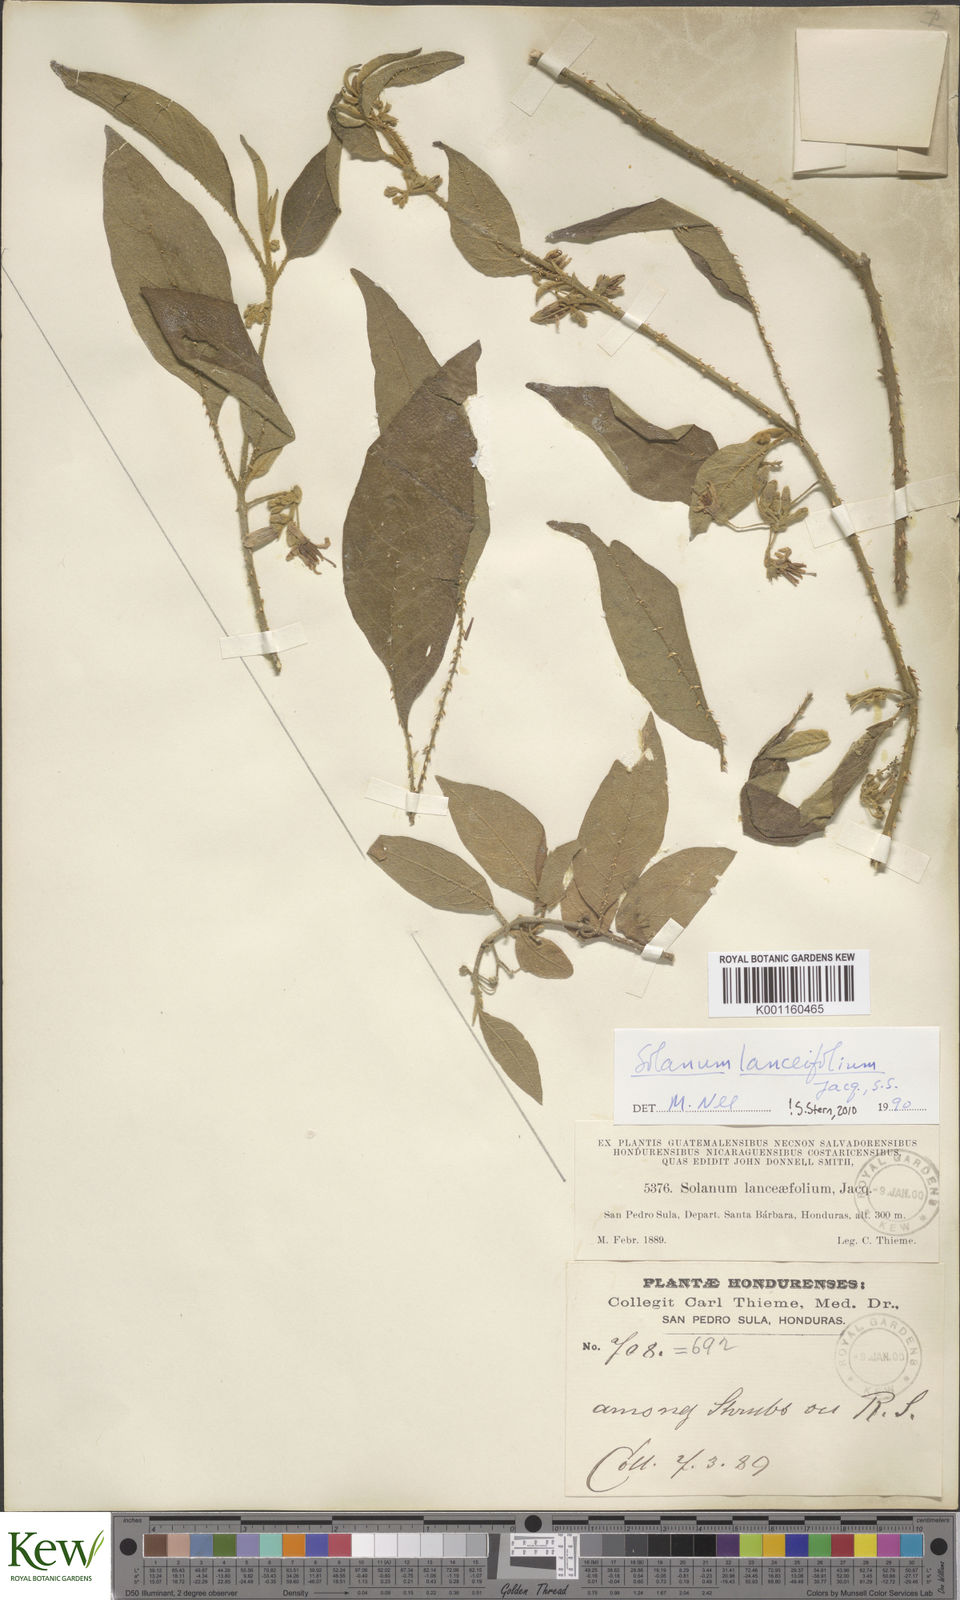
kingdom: Plantae
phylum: Tracheophyta
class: Magnoliopsida
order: Solanales
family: Solanaceae
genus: Solanum
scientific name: Solanum lanceifolium
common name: Lanceleaf nightshade
